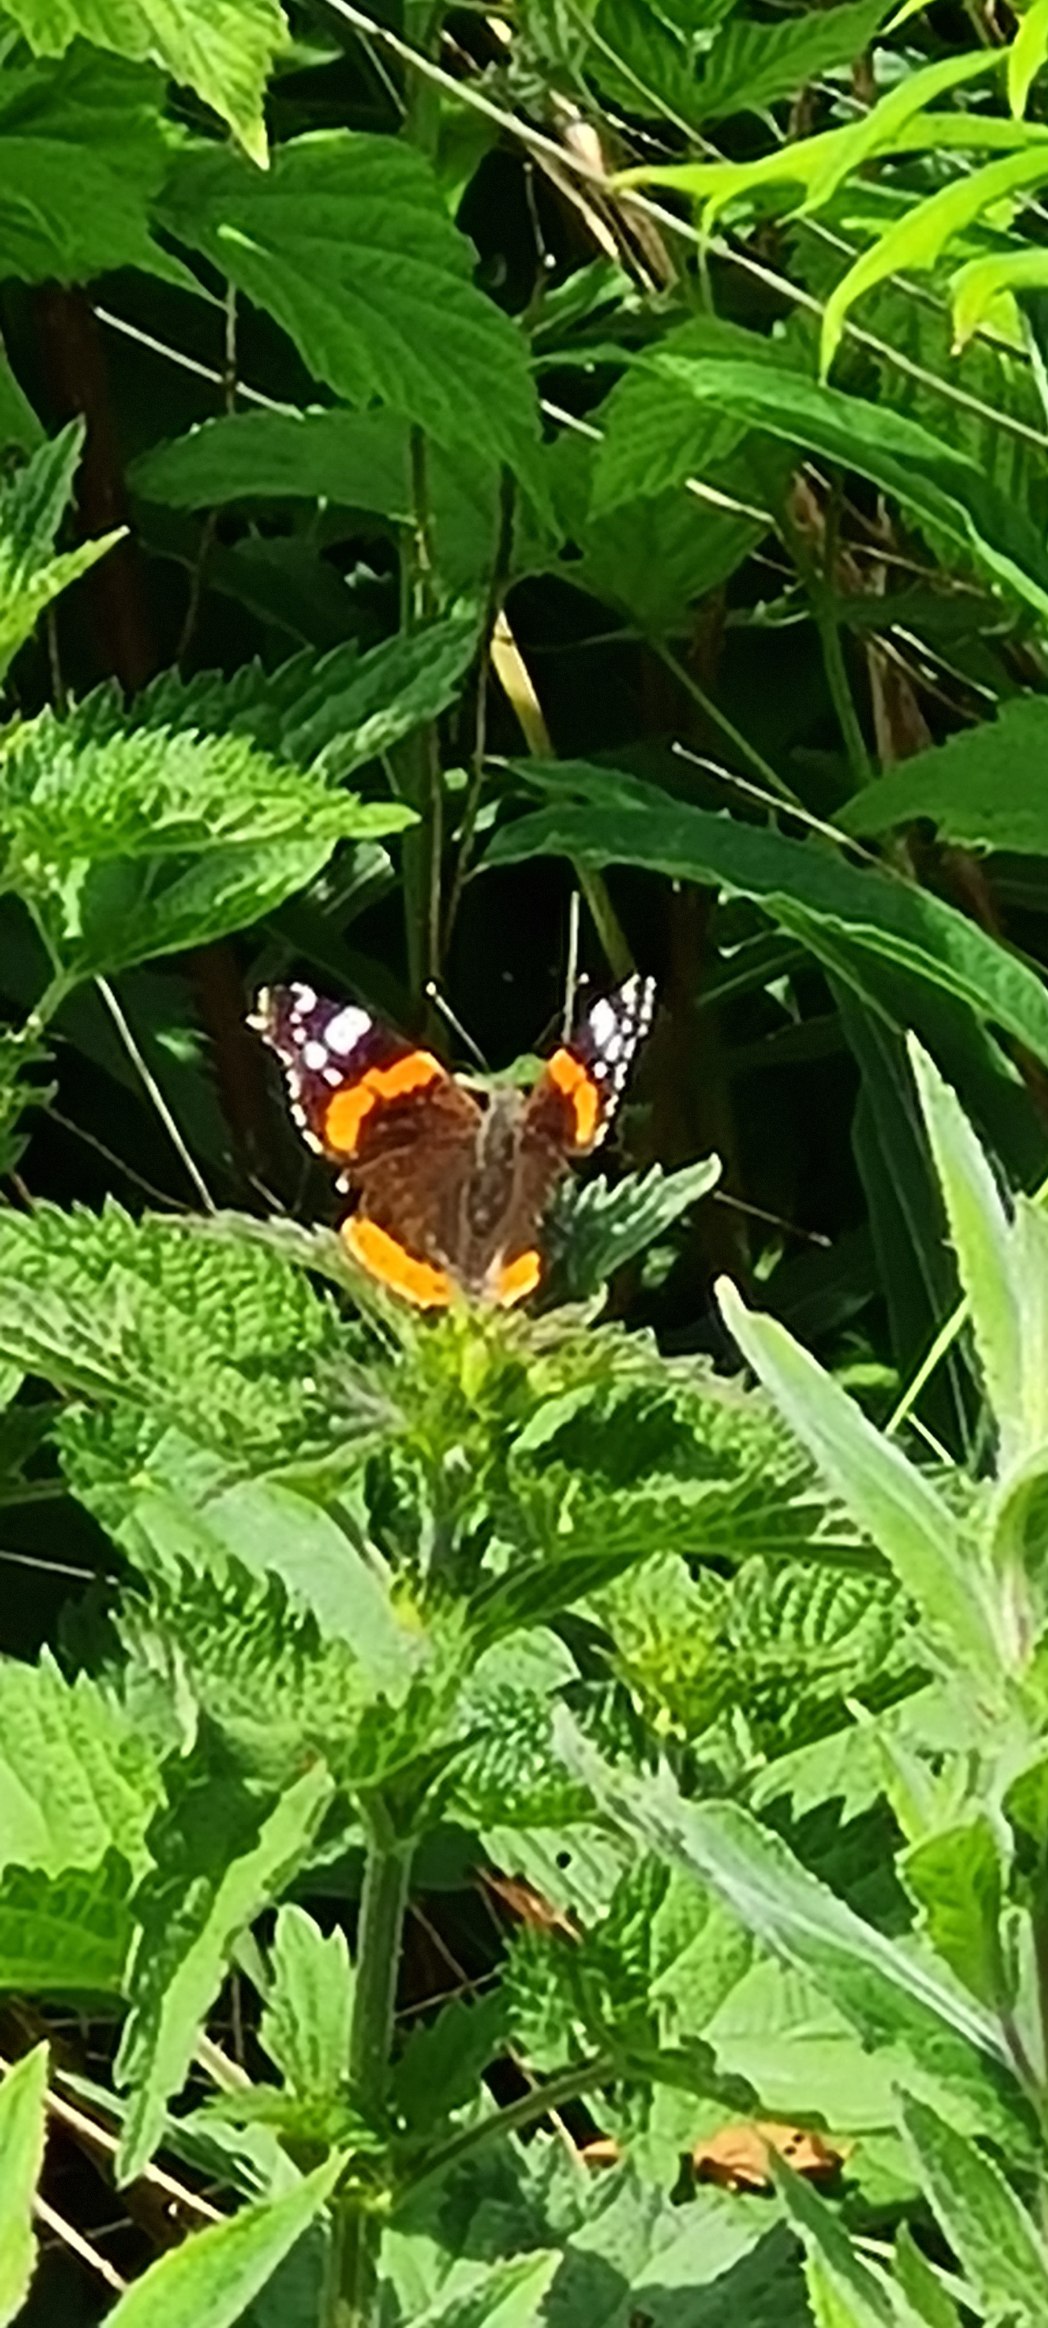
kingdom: Animalia
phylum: Arthropoda
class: Insecta
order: Lepidoptera
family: Nymphalidae
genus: Vanessa
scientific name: Vanessa atalanta
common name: Admiral
